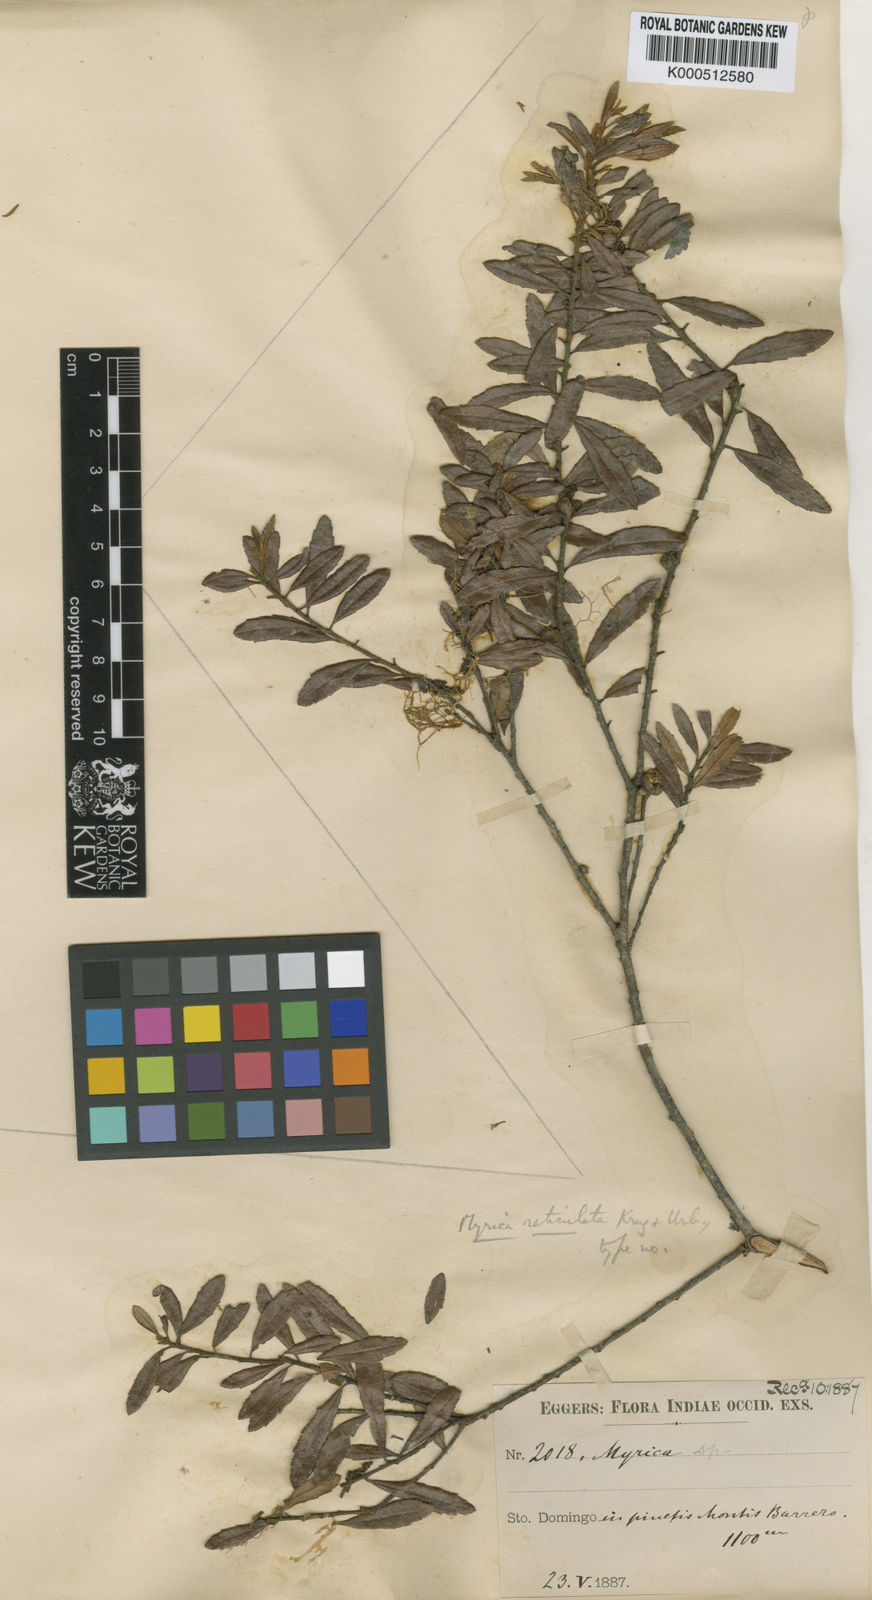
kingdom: Plantae
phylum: Tracheophyta
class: Magnoliopsida
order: Fagales
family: Myricaceae
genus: Morella
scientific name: Morella cerifera
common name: Wax myrtle
